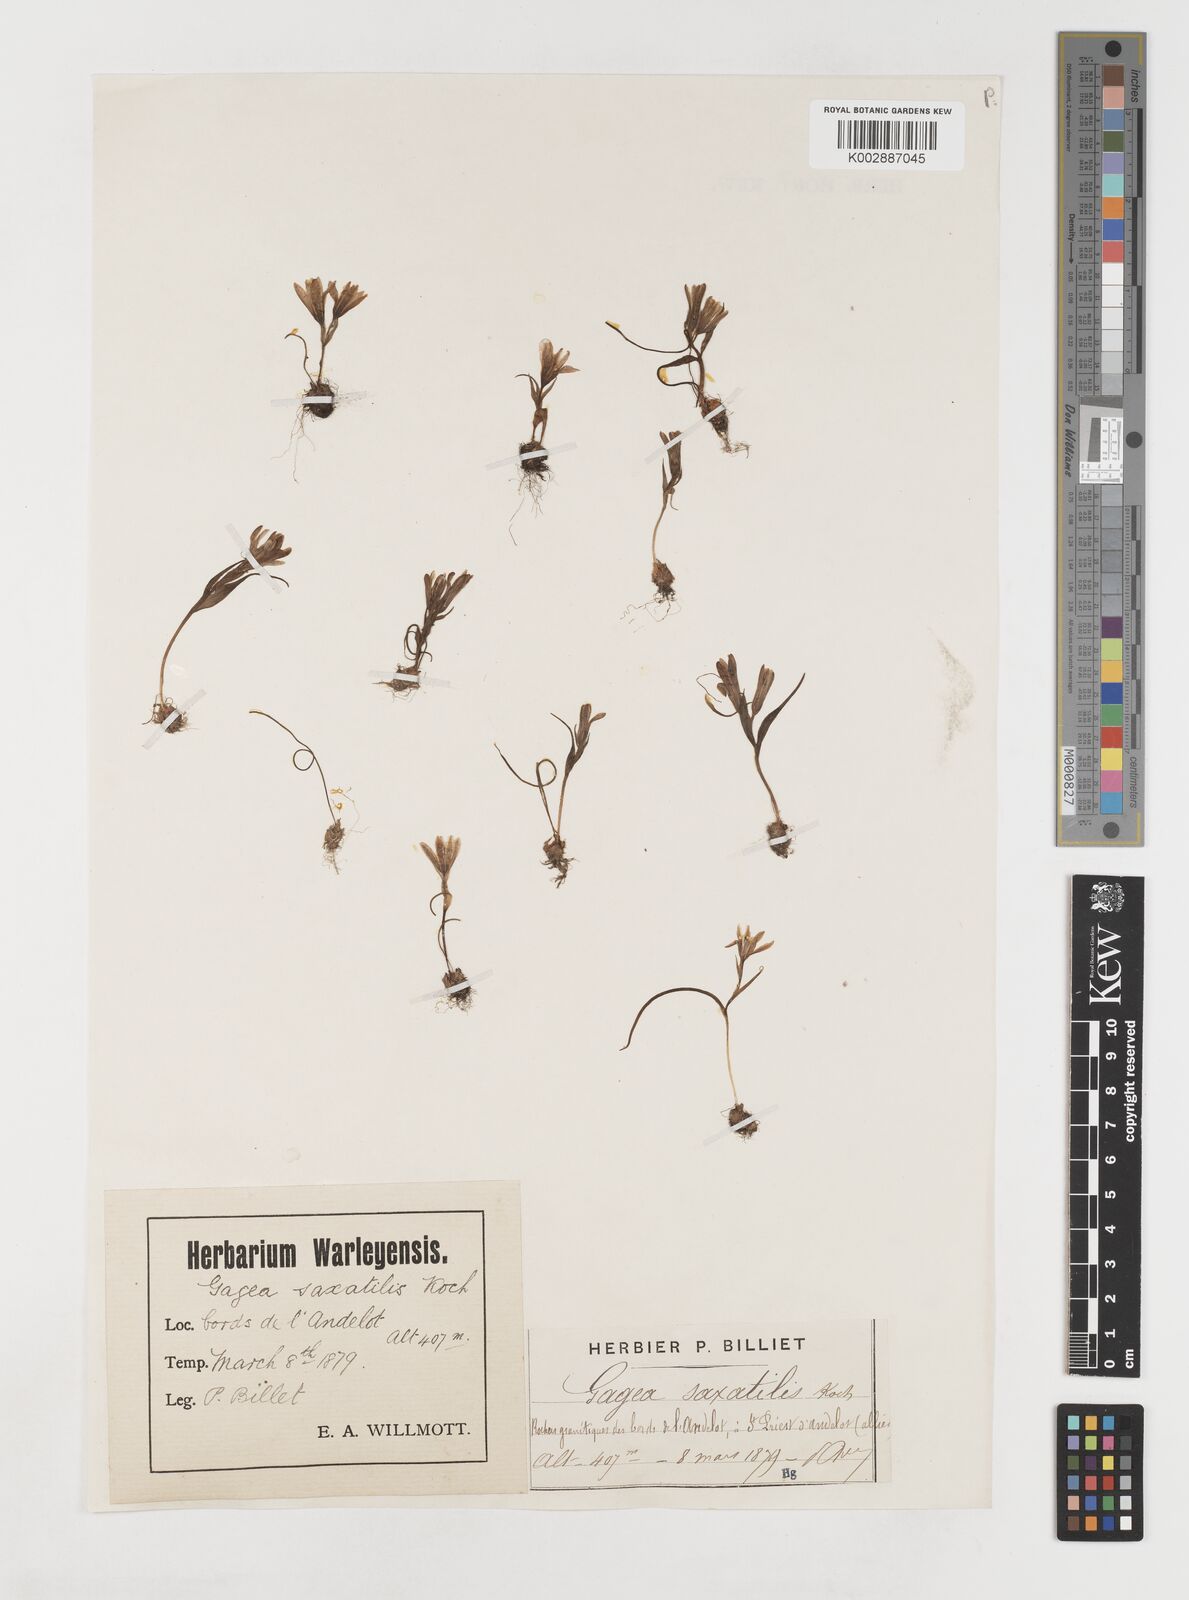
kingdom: Plantae
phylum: Tracheophyta
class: Liliopsida
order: Liliales
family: Liliaceae
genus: Gagea
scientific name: Gagea bohemica
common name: Early star-of-bethlehem
